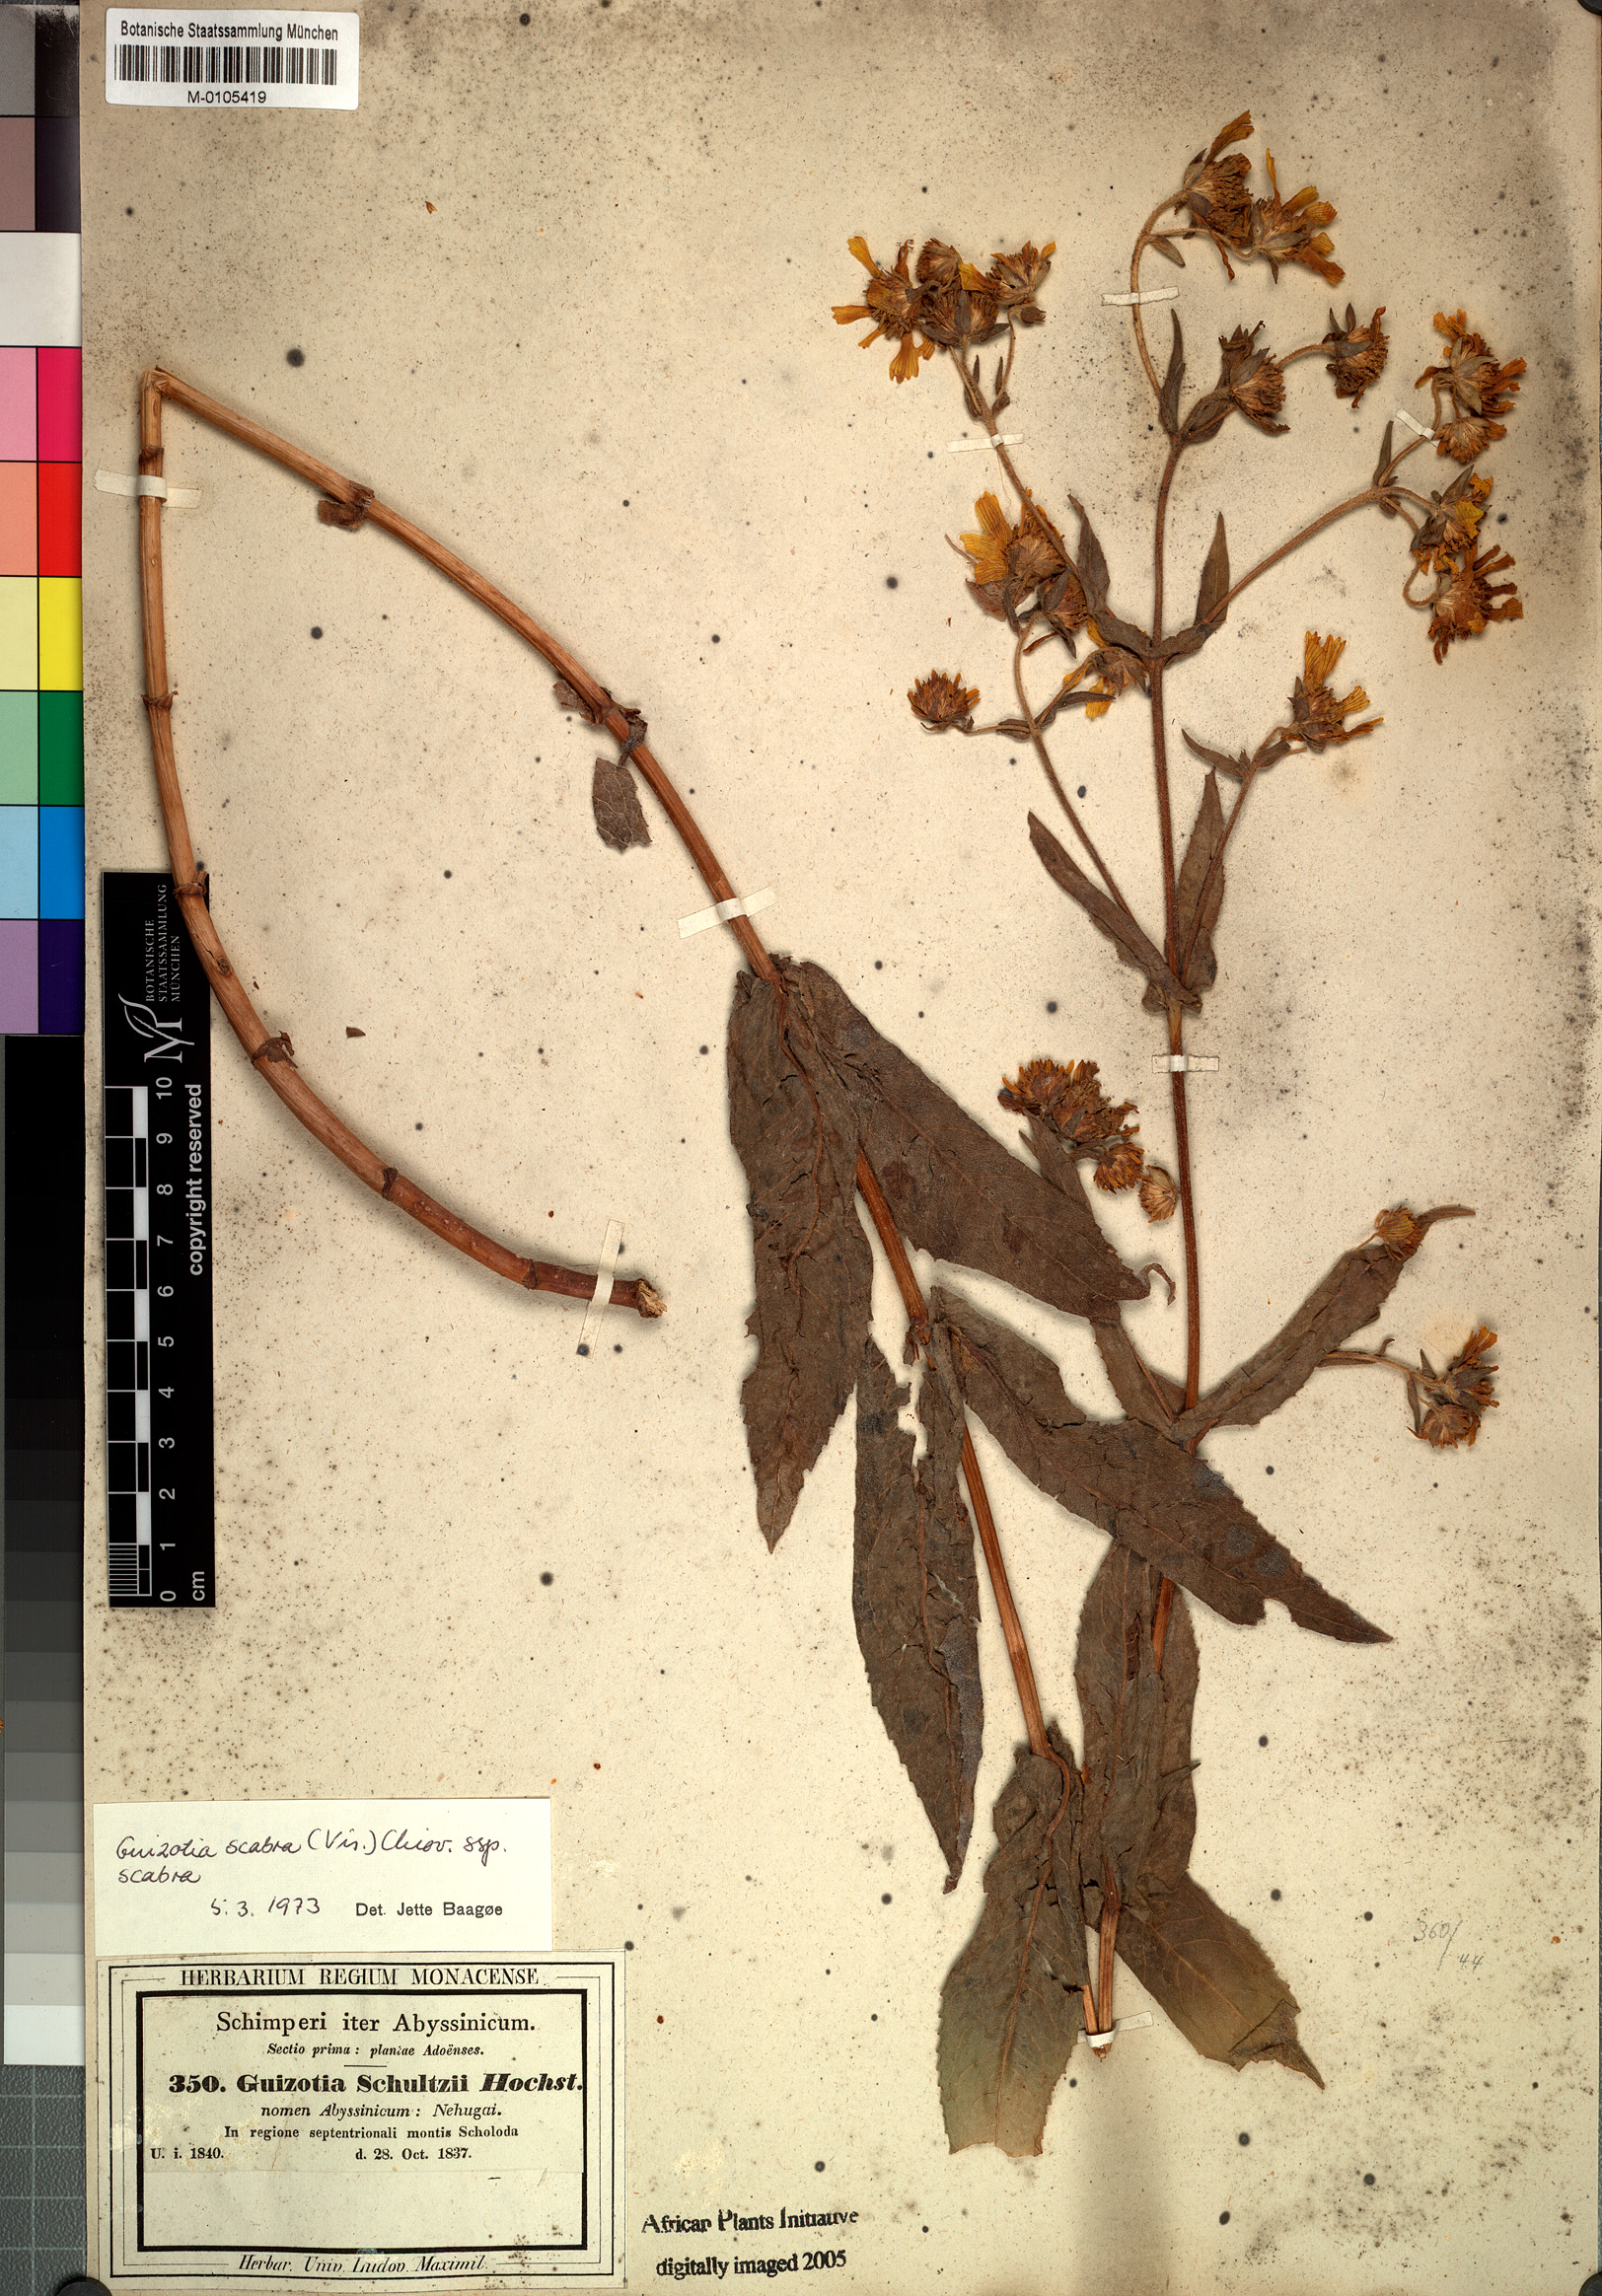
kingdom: Plantae
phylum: Tracheophyta
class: Magnoliopsida
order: Asterales
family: Asteraceae
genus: Guizotia
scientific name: Guizotia scabra
